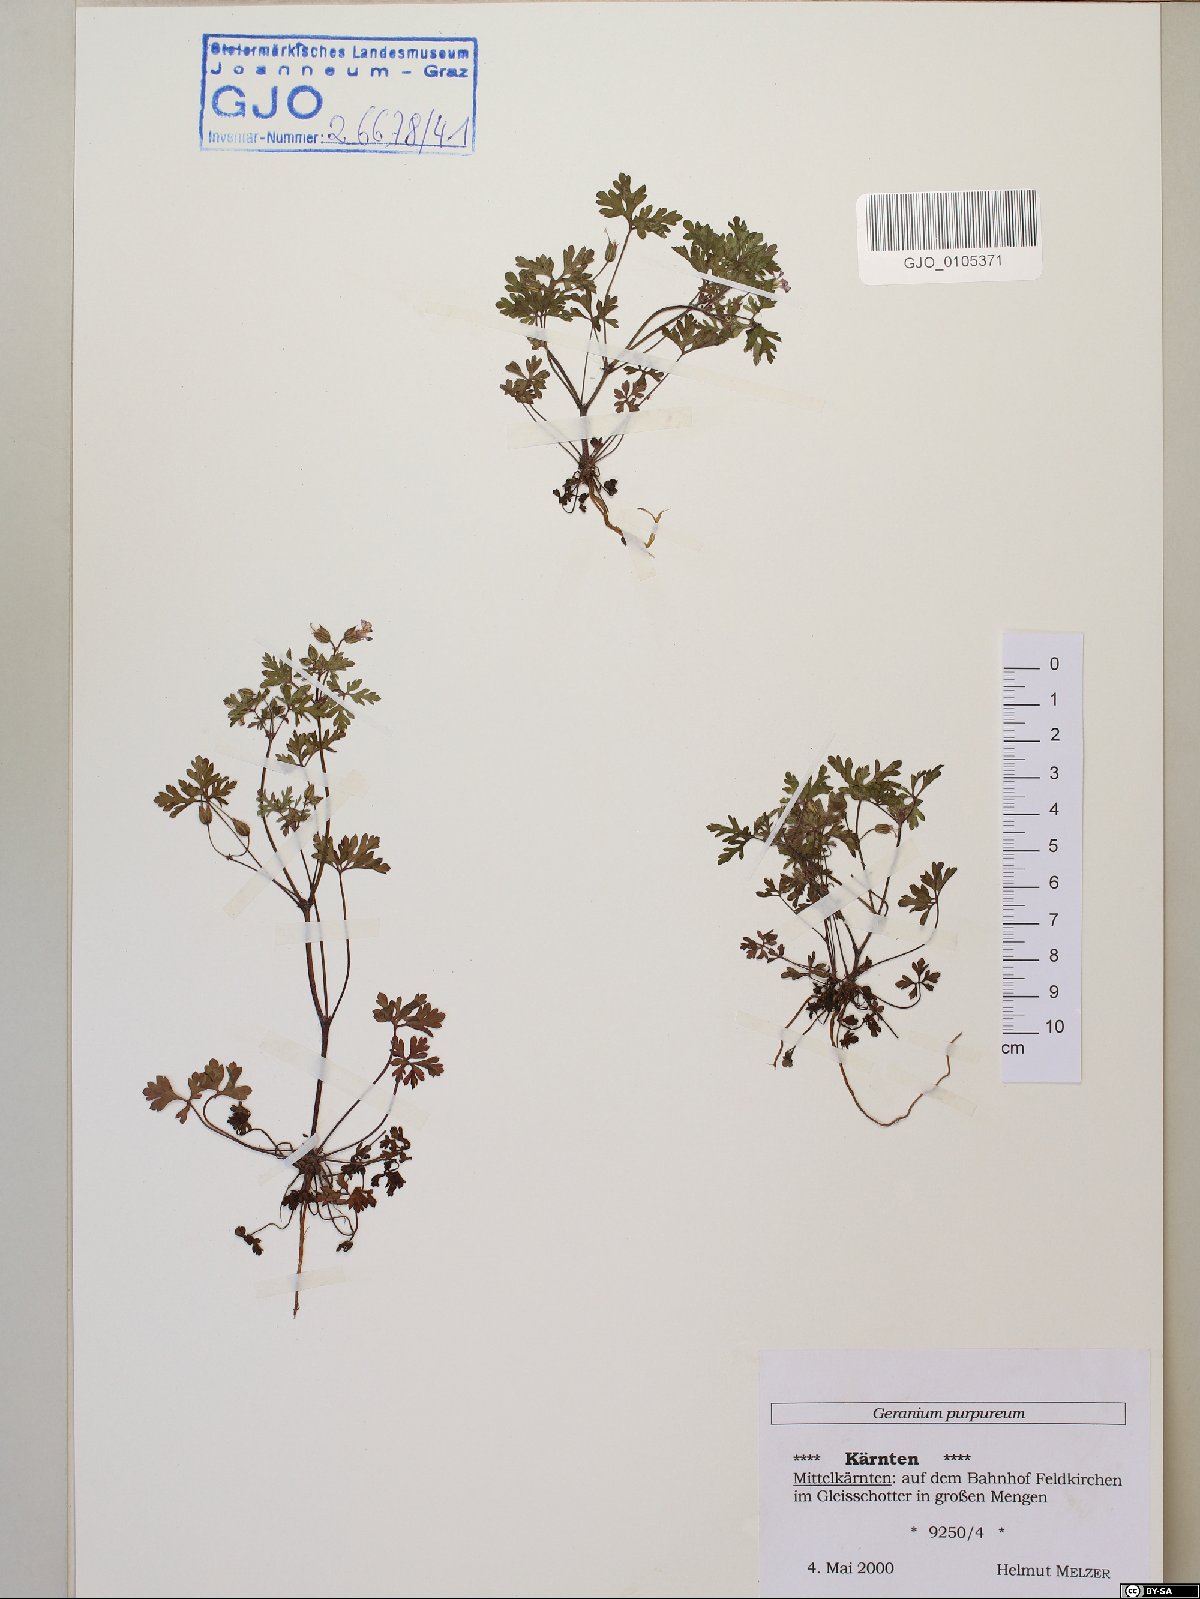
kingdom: Plantae
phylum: Tracheophyta
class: Magnoliopsida
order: Geraniales
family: Geraniaceae
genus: Geranium
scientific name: Geranium purpureum
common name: Little-robin
